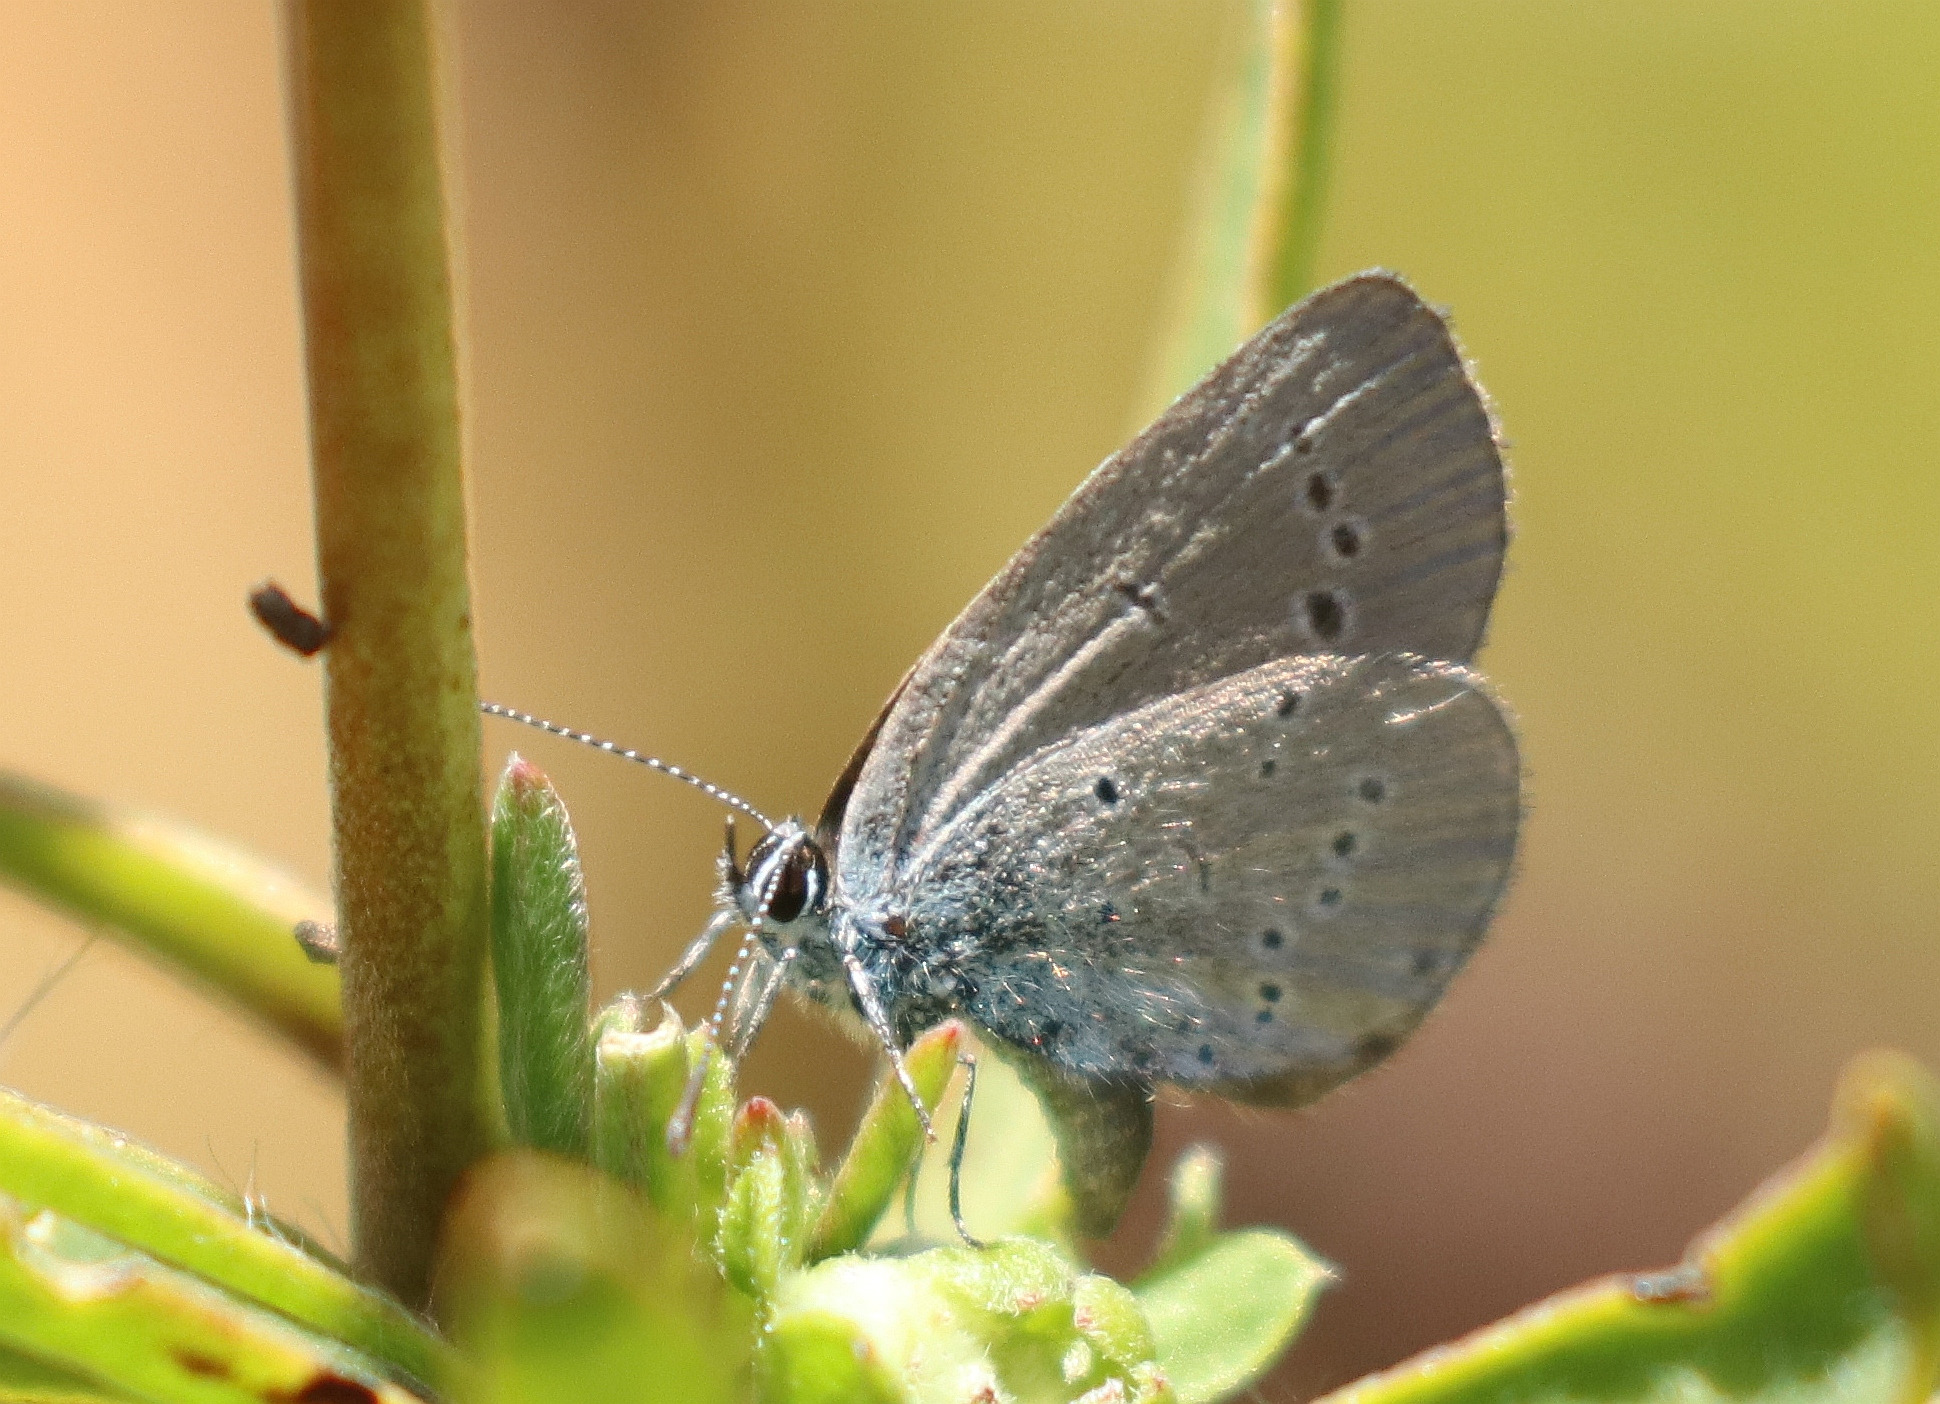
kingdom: Animalia
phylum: Arthropoda
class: Insecta
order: Lepidoptera
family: Lycaenidae
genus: Cupido
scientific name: Cupido minimus
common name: Dværgblåfugl
